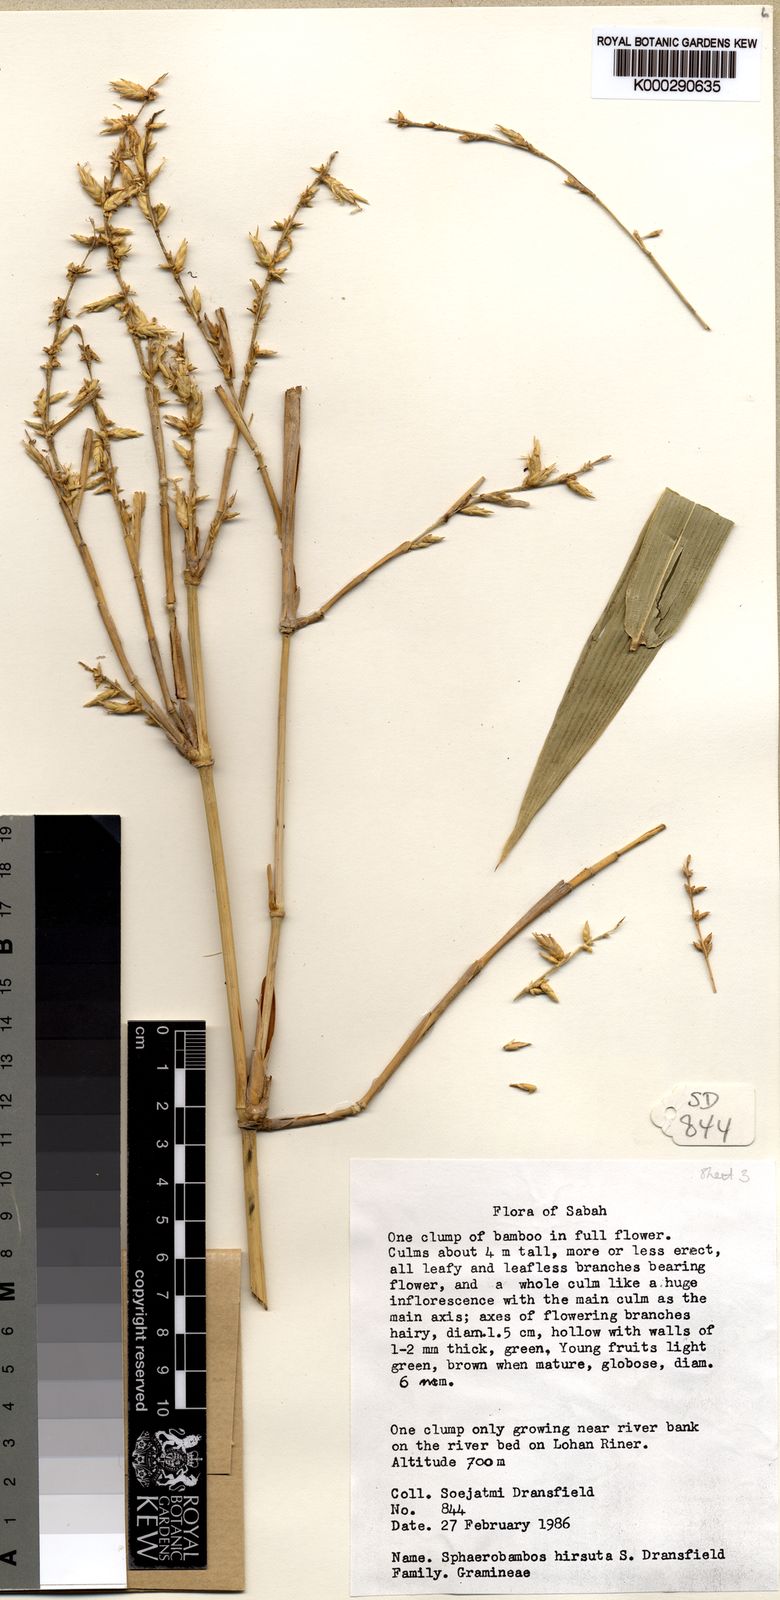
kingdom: Plantae
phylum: Tracheophyta
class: Liliopsida
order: Poales
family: Poaceae
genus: Sphaerobambos
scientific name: Sphaerobambos hirsuta
